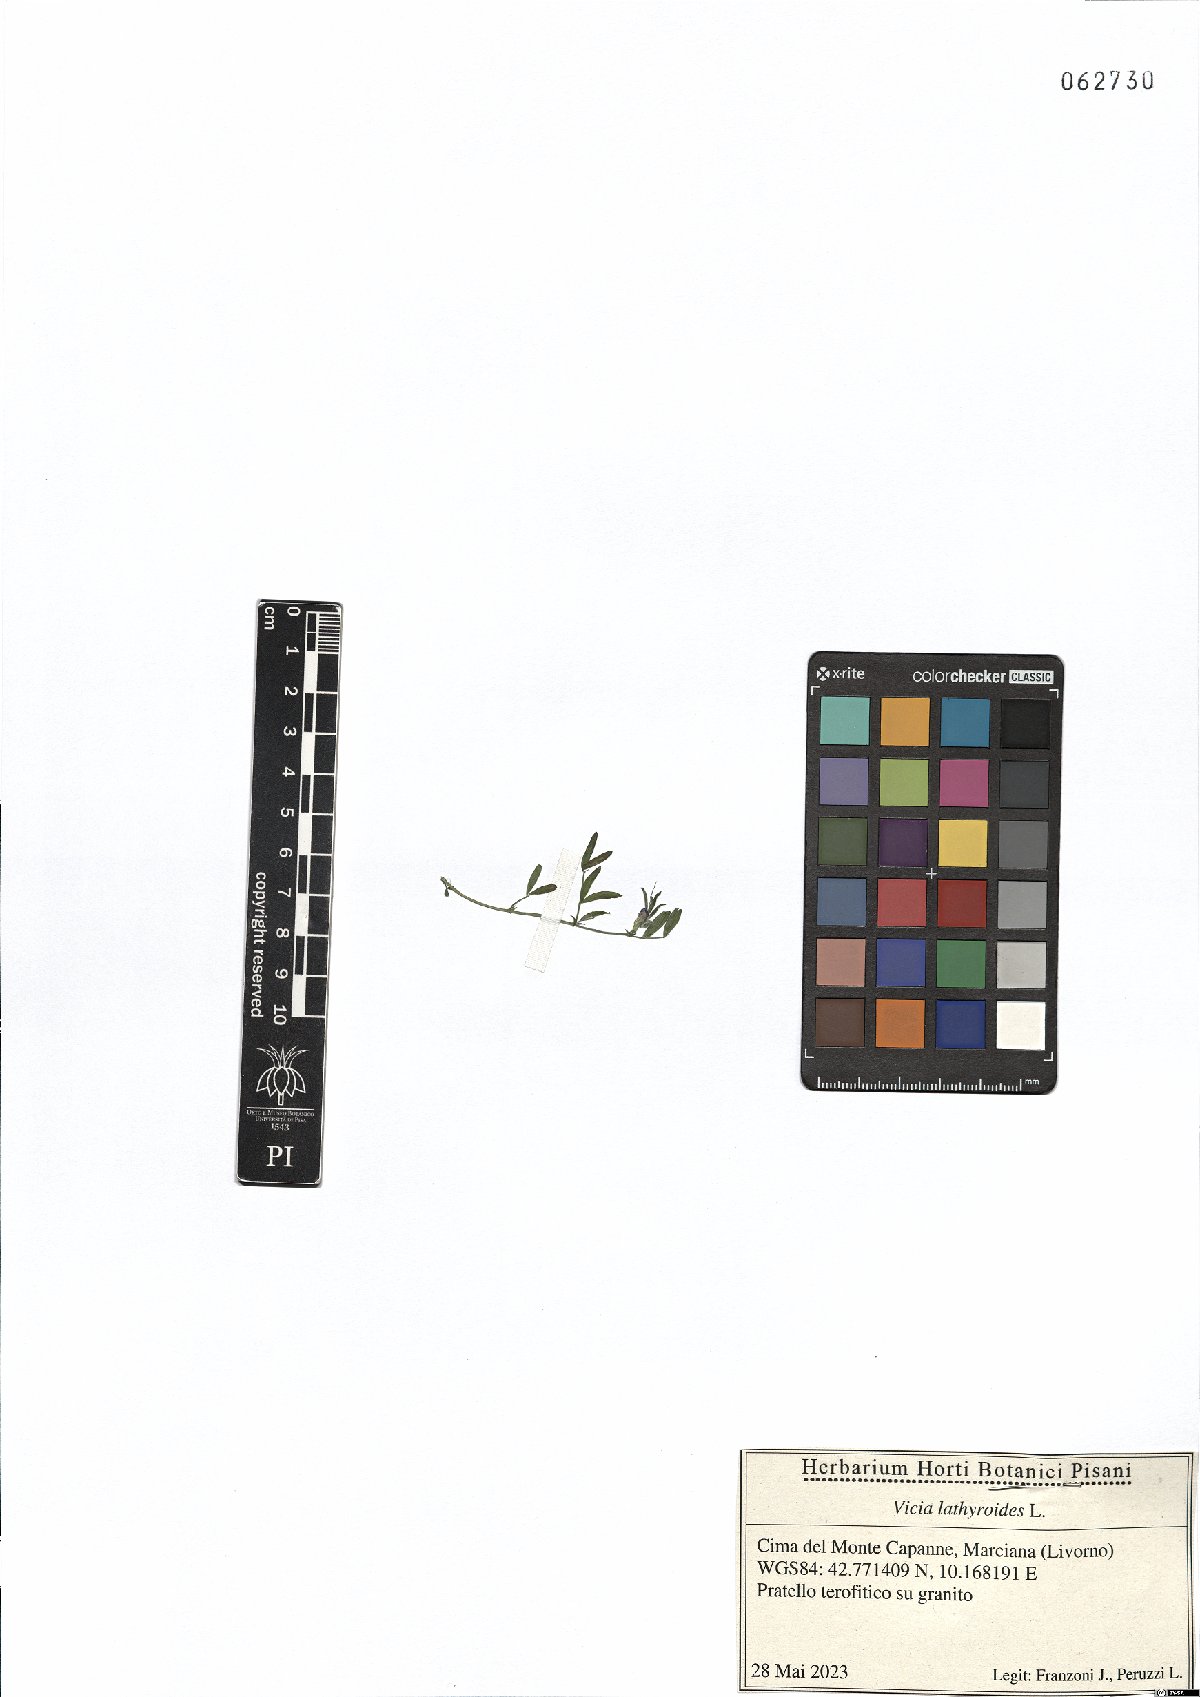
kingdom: Plantae
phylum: Tracheophyta
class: Magnoliopsida
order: Fabales
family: Fabaceae
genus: Vicia
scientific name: Vicia lathyroides
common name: Spring vetch
